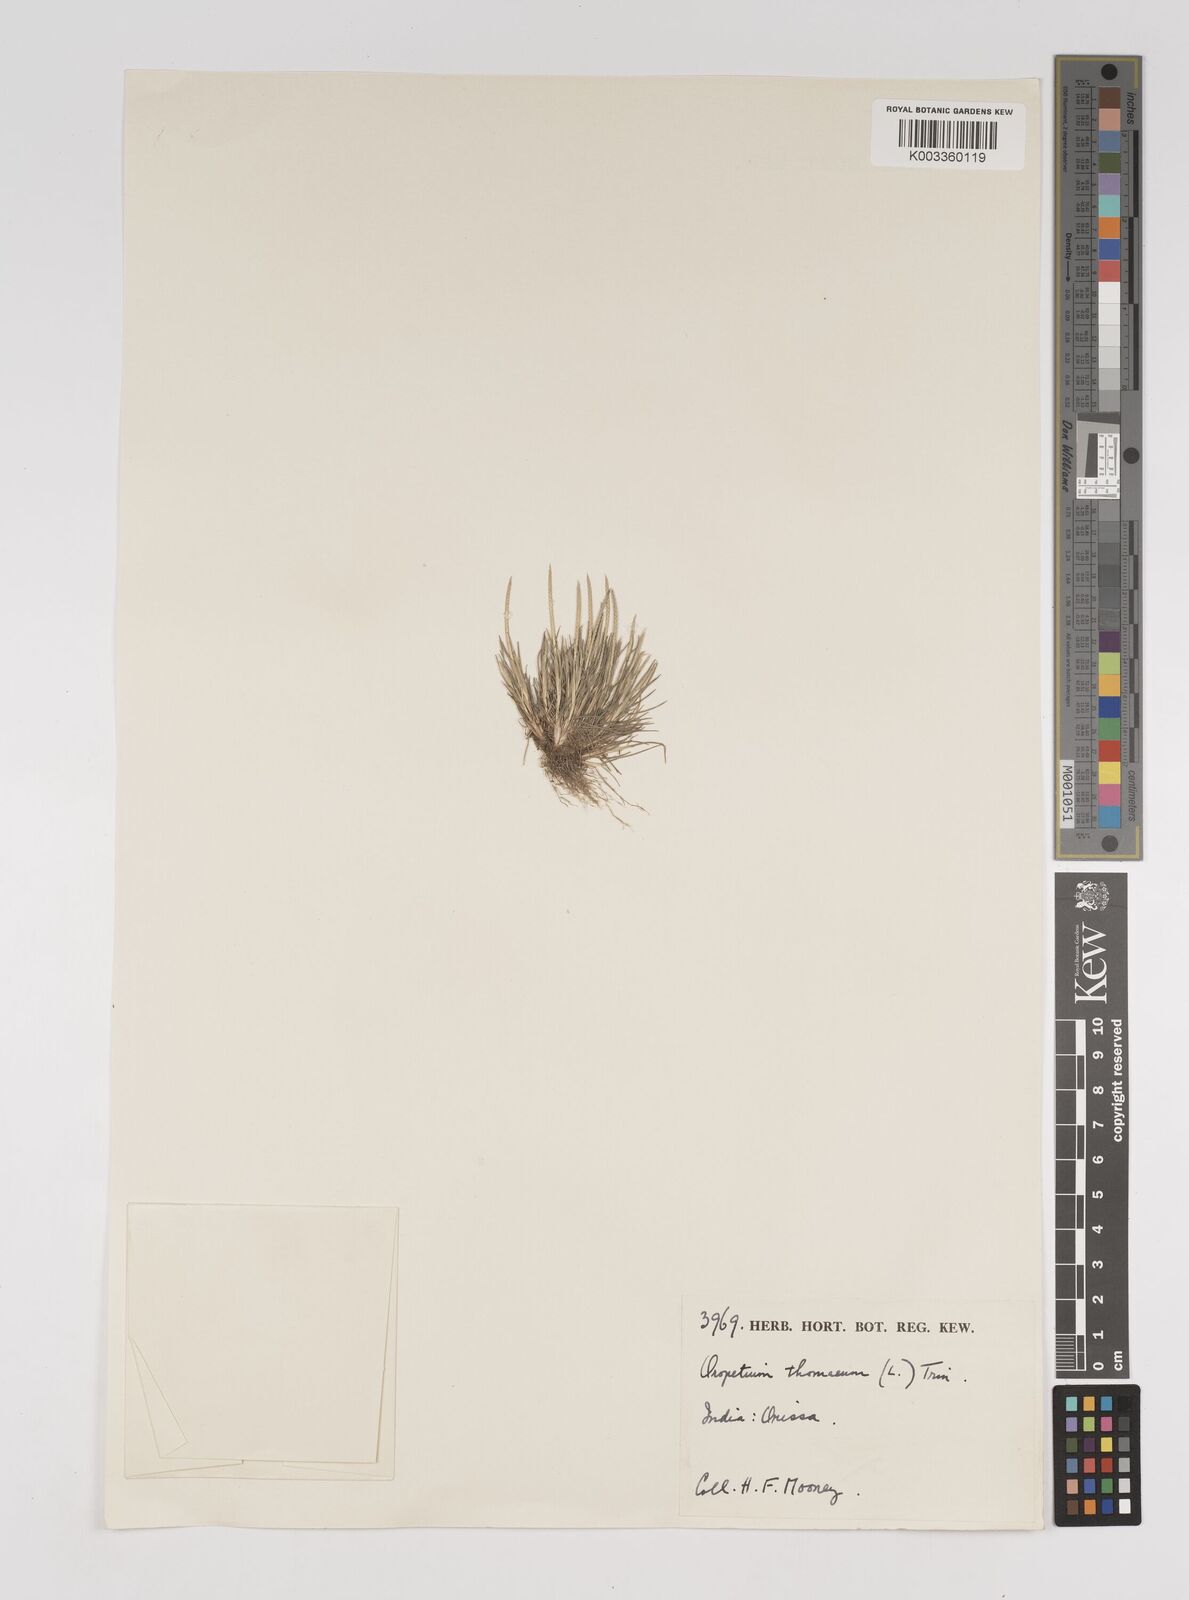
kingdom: Plantae
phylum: Tracheophyta
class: Liliopsida
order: Poales
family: Poaceae
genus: Oropetium
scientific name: Oropetium thomaeum
